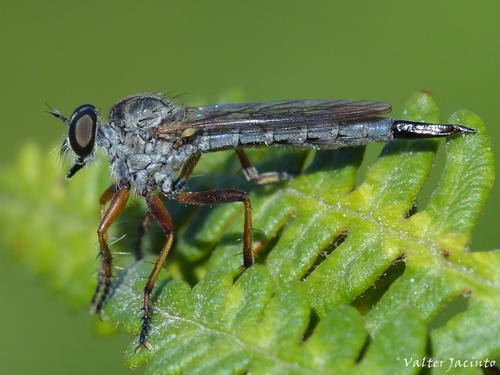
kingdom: Animalia
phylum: Arthropoda
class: Insecta
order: Diptera
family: Asilidae
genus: Neomochtherus
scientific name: Neomochtherus
